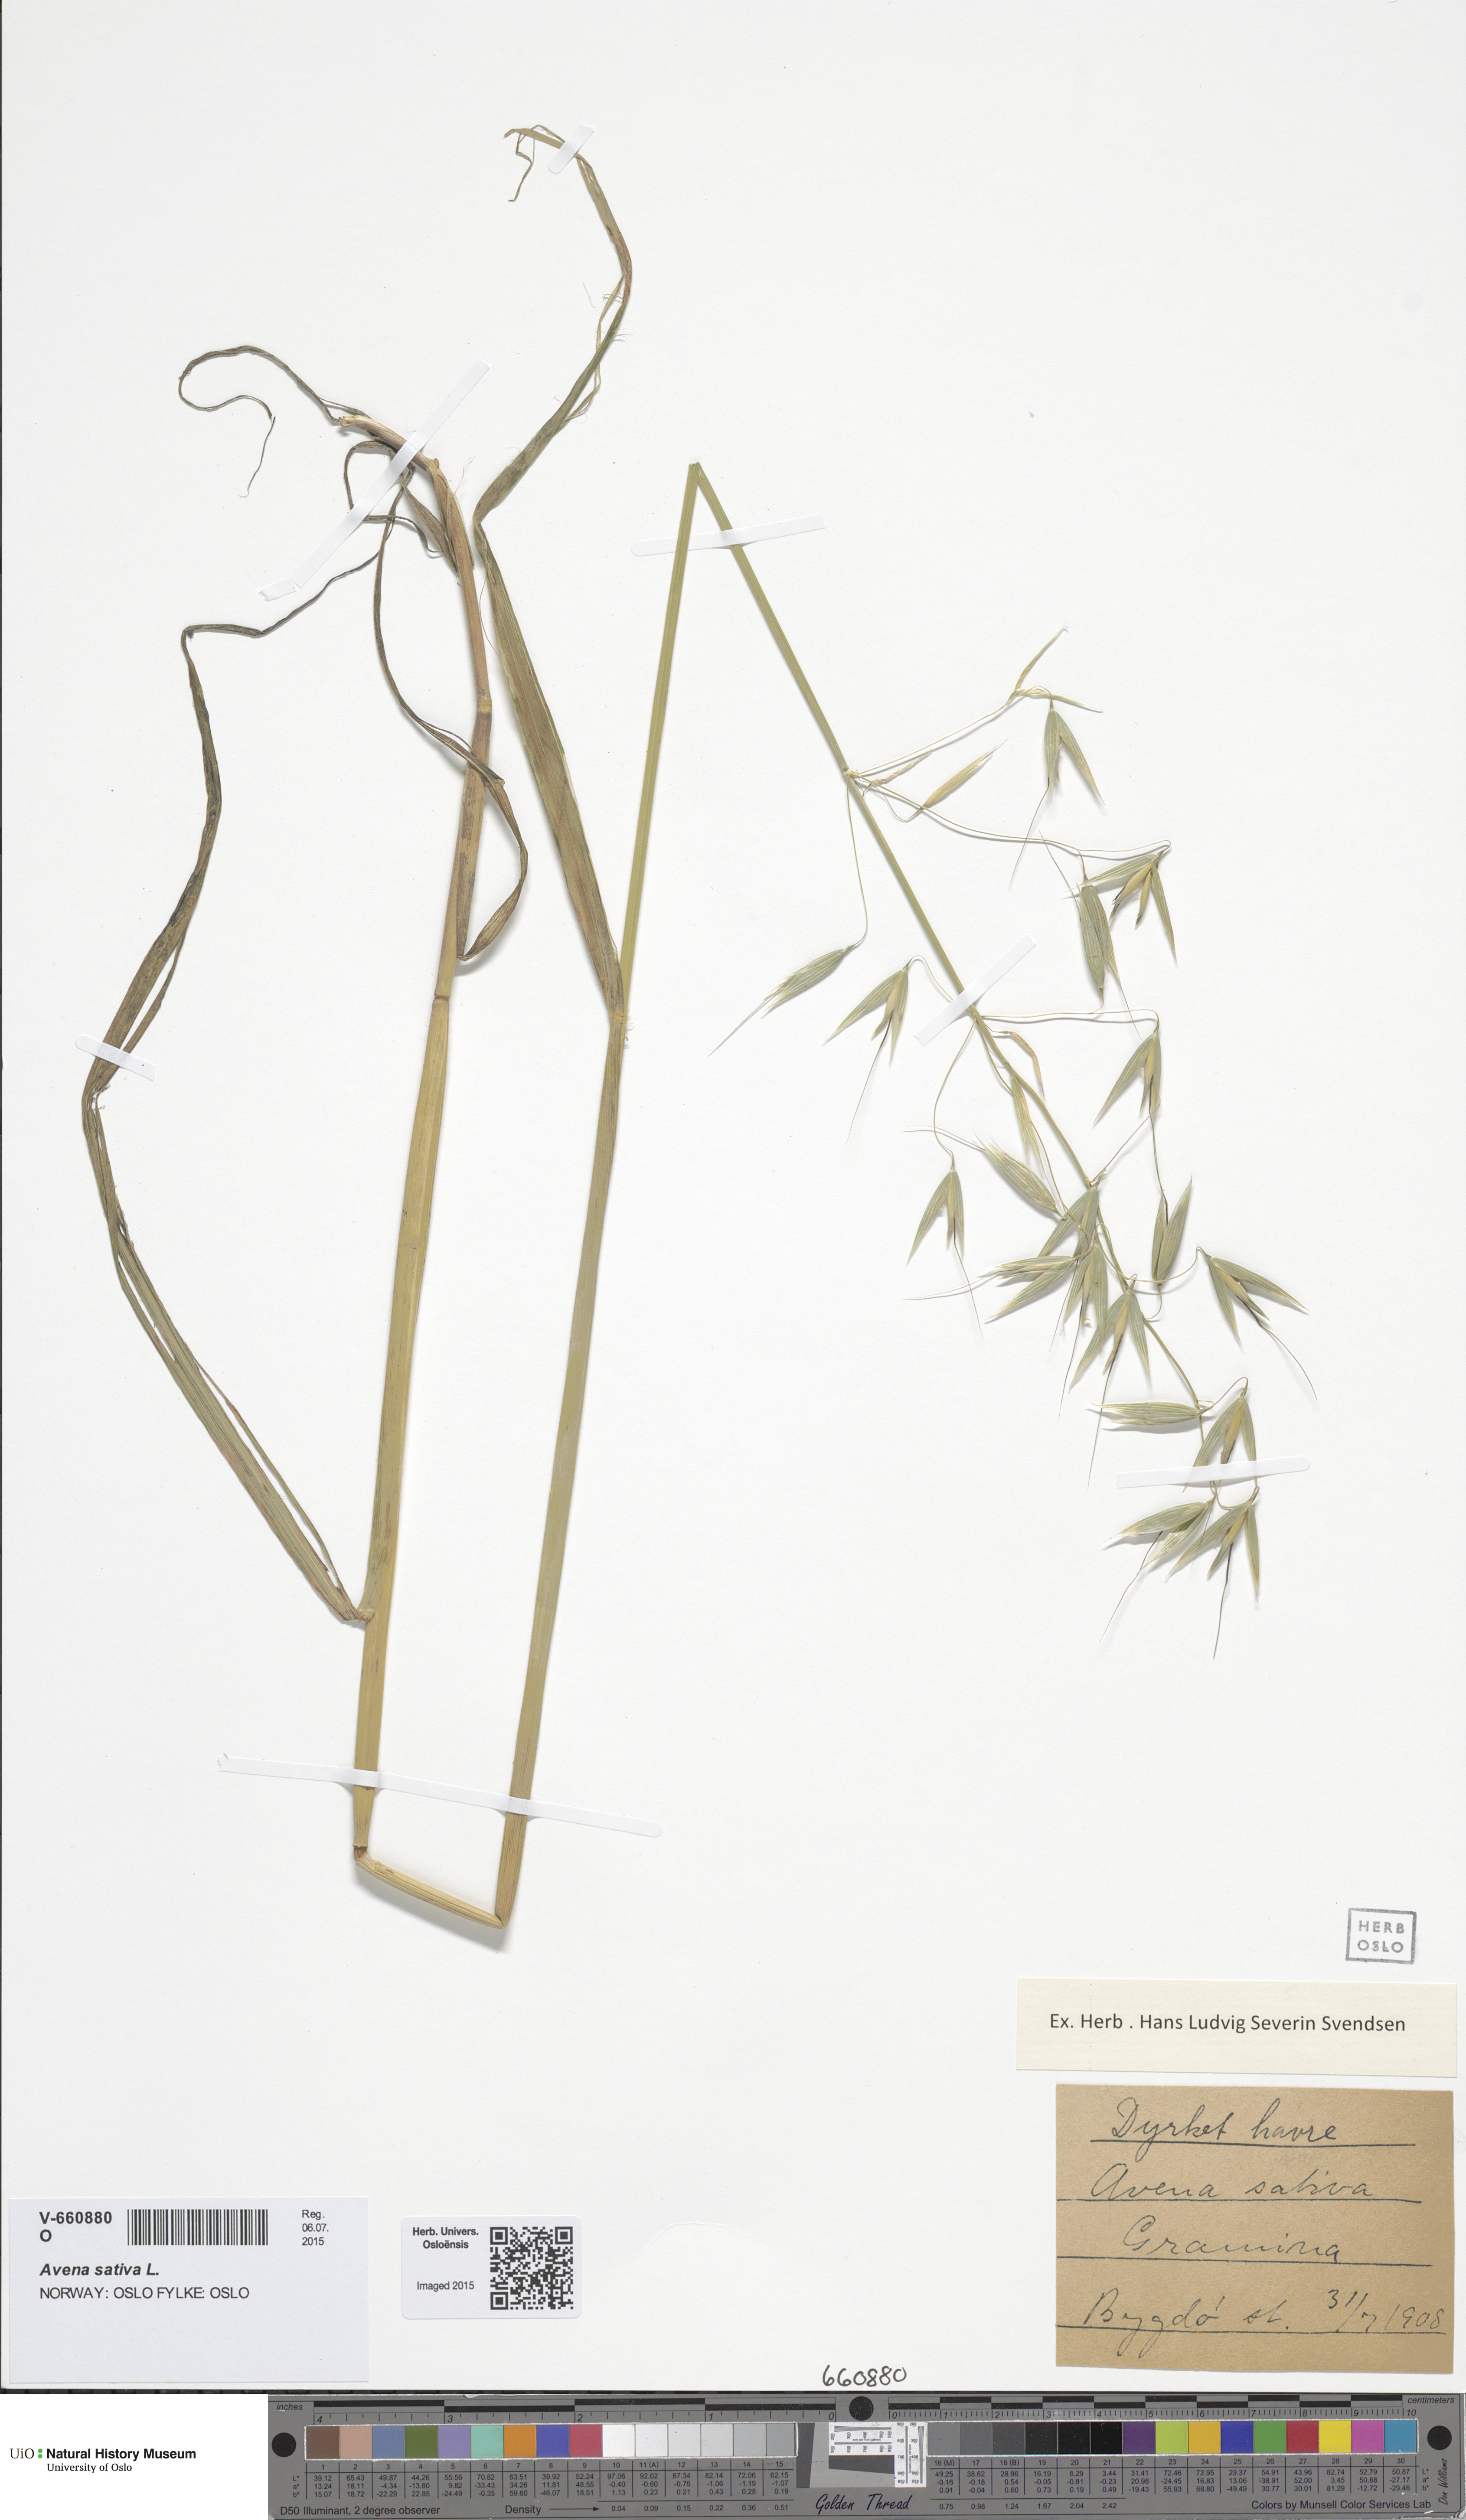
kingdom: Plantae
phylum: Tracheophyta
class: Liliopsida
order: Poales
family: Poaceae
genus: Avena
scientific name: Avena sativa
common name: Oat
